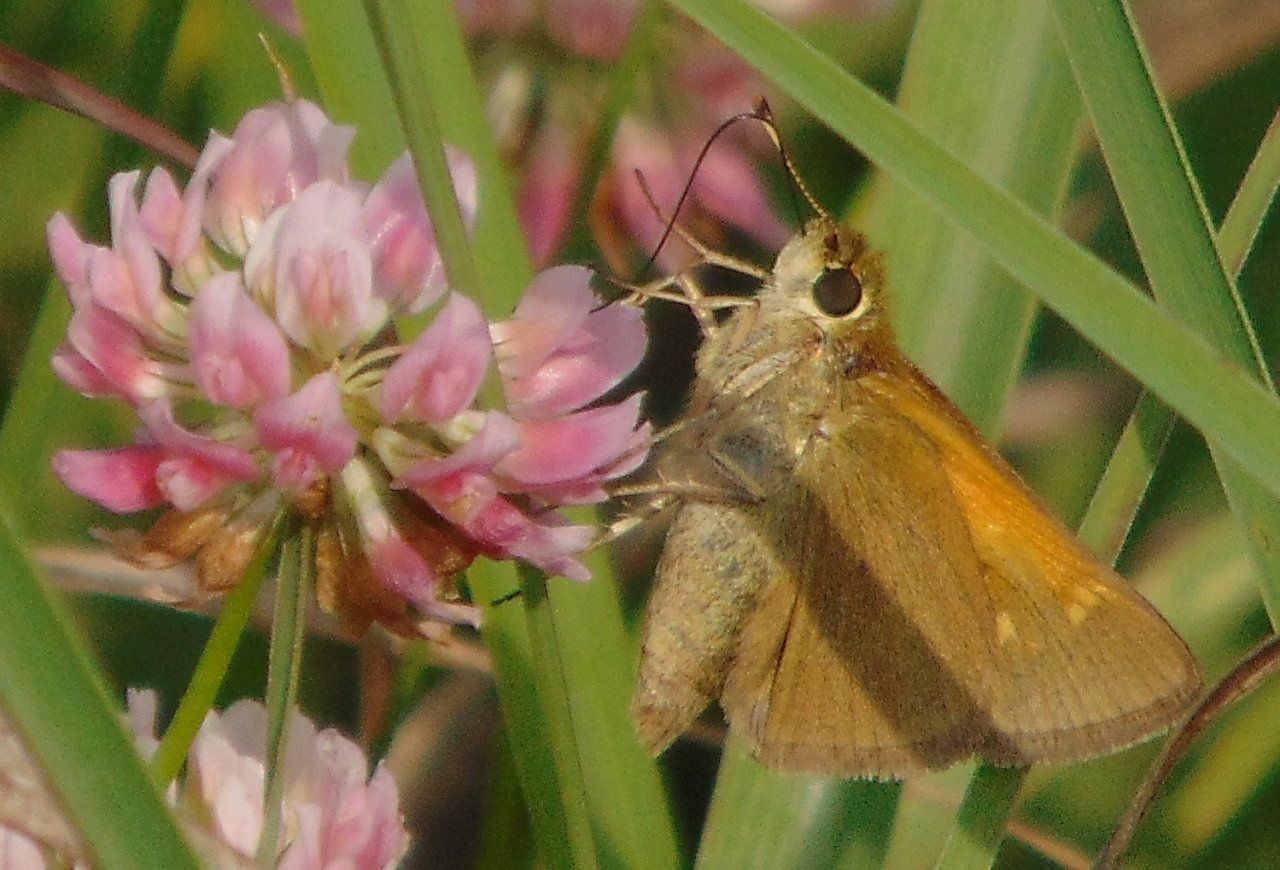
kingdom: Animalia
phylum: Arthropoda
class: Insecta
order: Lepidoptera
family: Hesperiidae
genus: Polites
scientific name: Polites themistocles
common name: Tawny-edged Skipper
